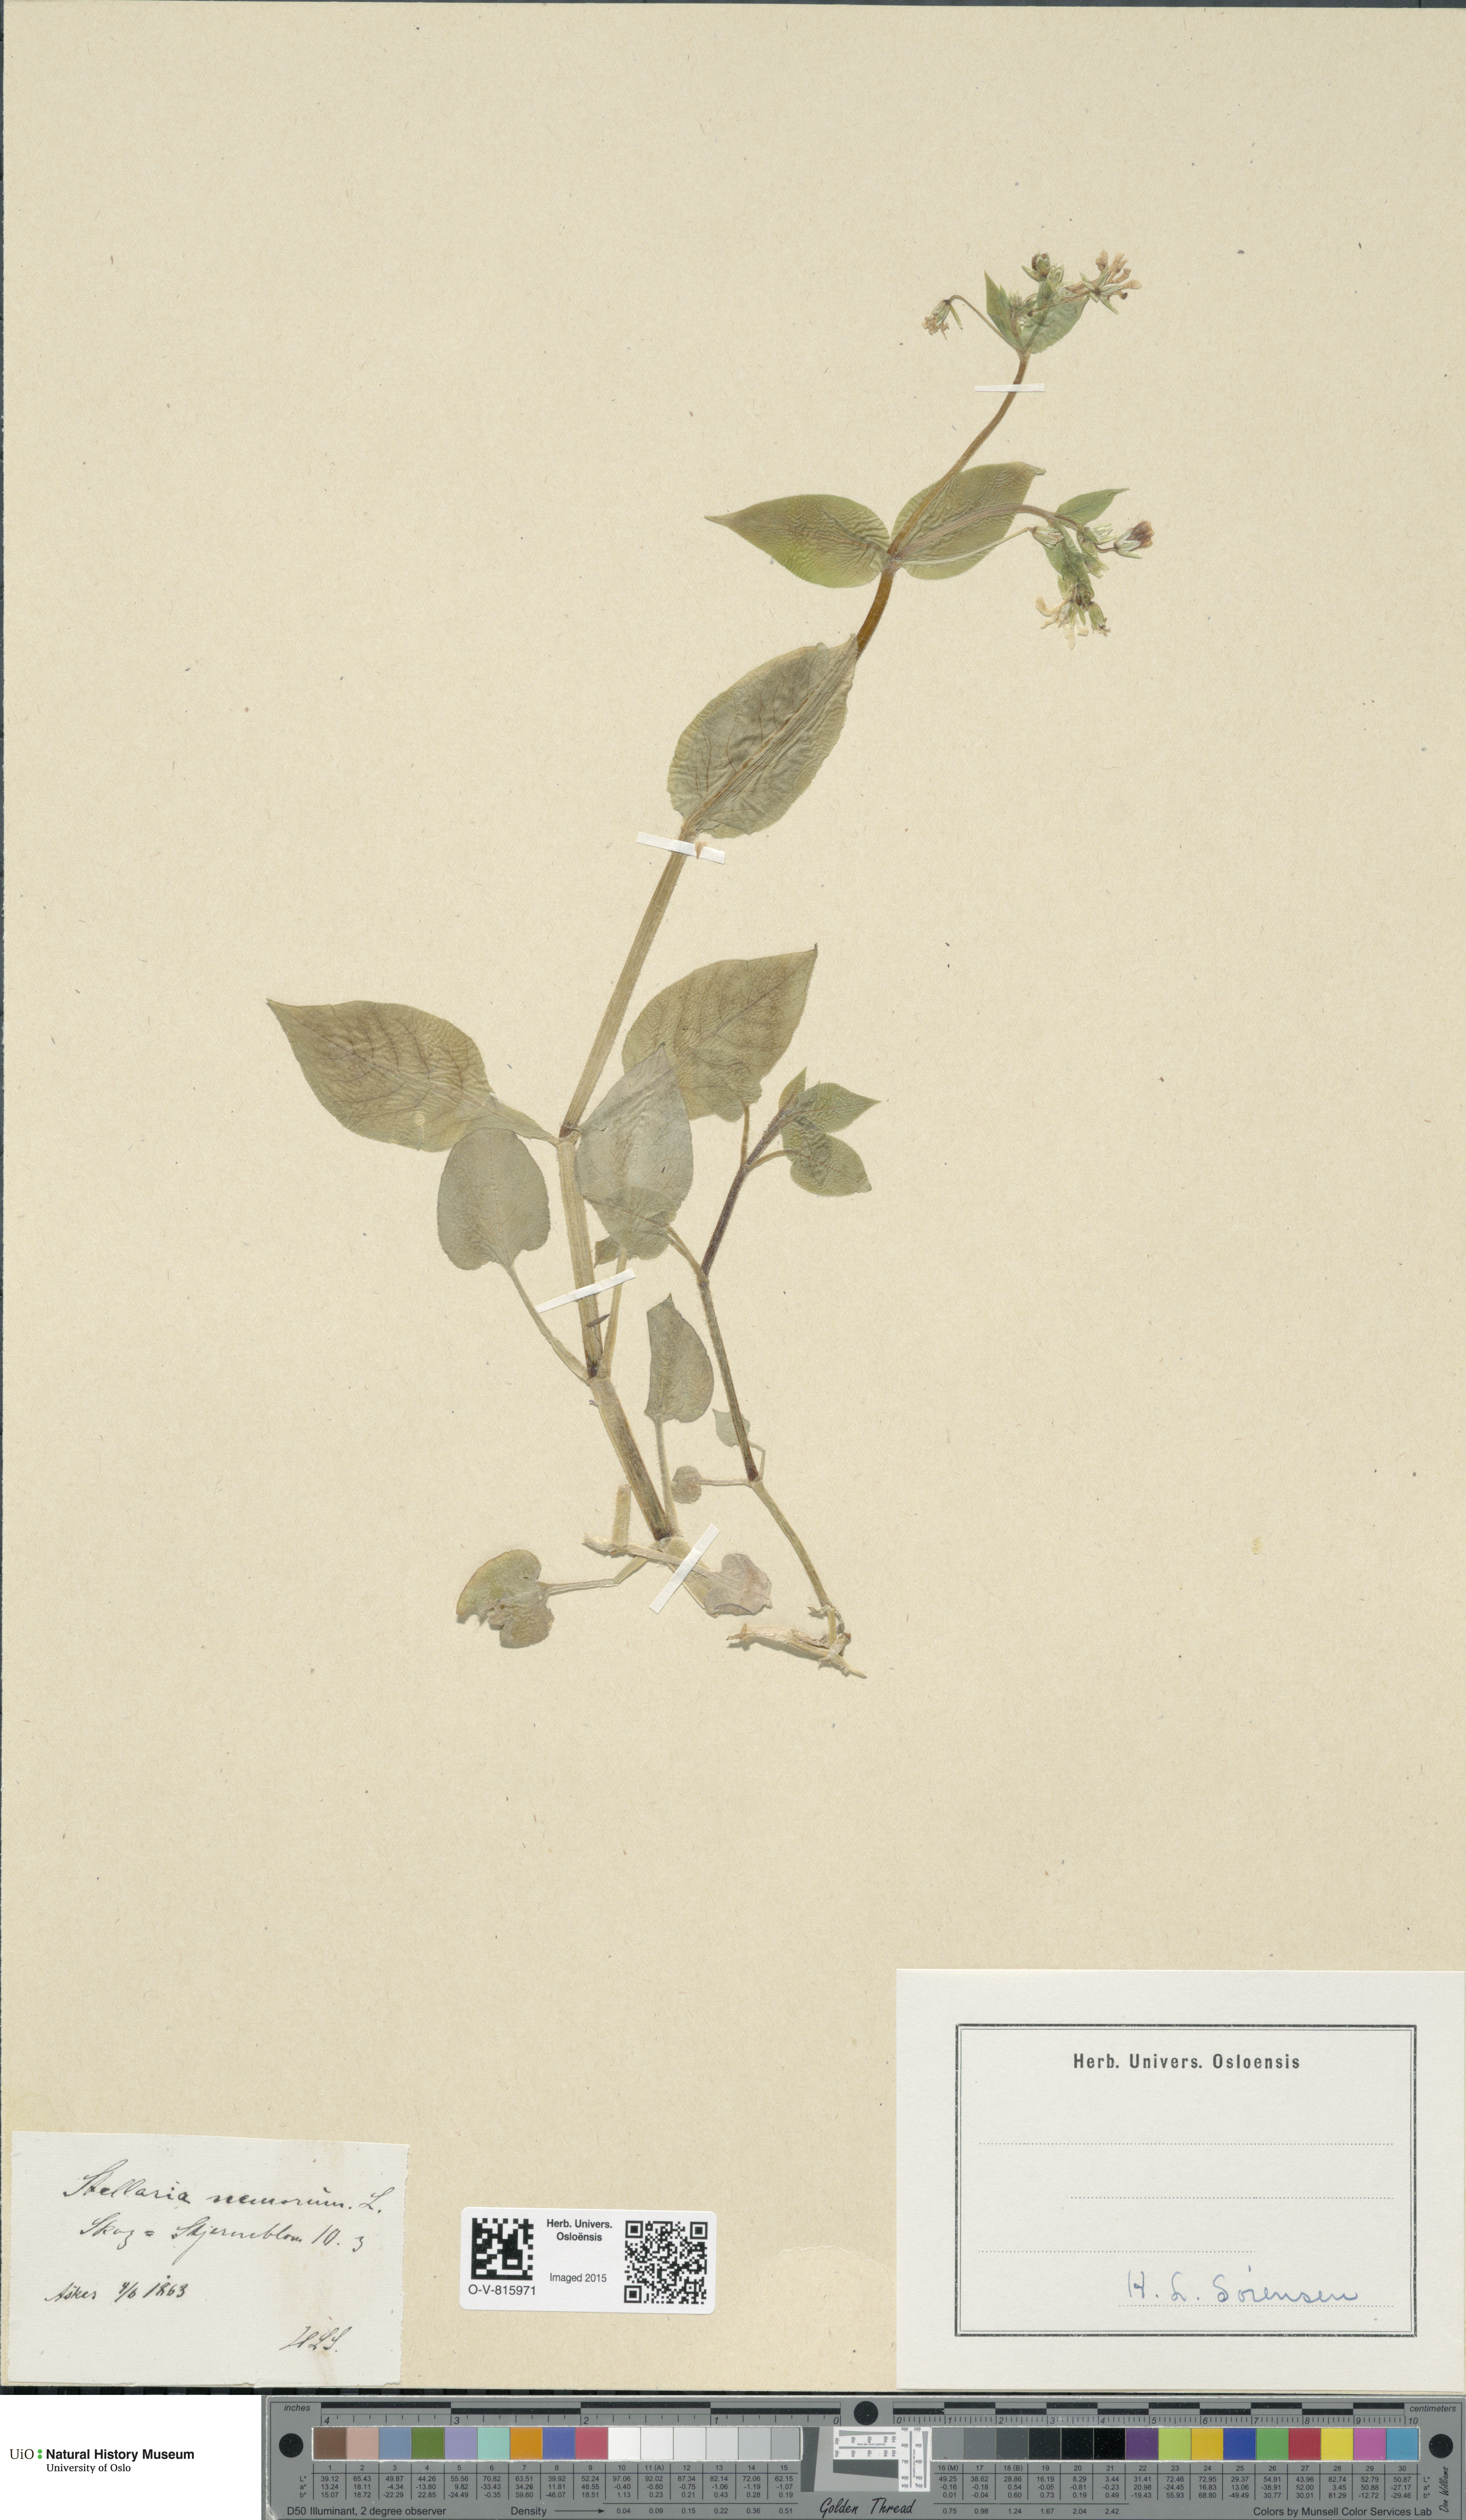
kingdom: Plantae
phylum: Tracheophyta
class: Magnoliopsida
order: Caryophyllales
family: Caryophyllaceae
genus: Stellaria
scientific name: Stellaria nemorum
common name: Wood stitchwort
